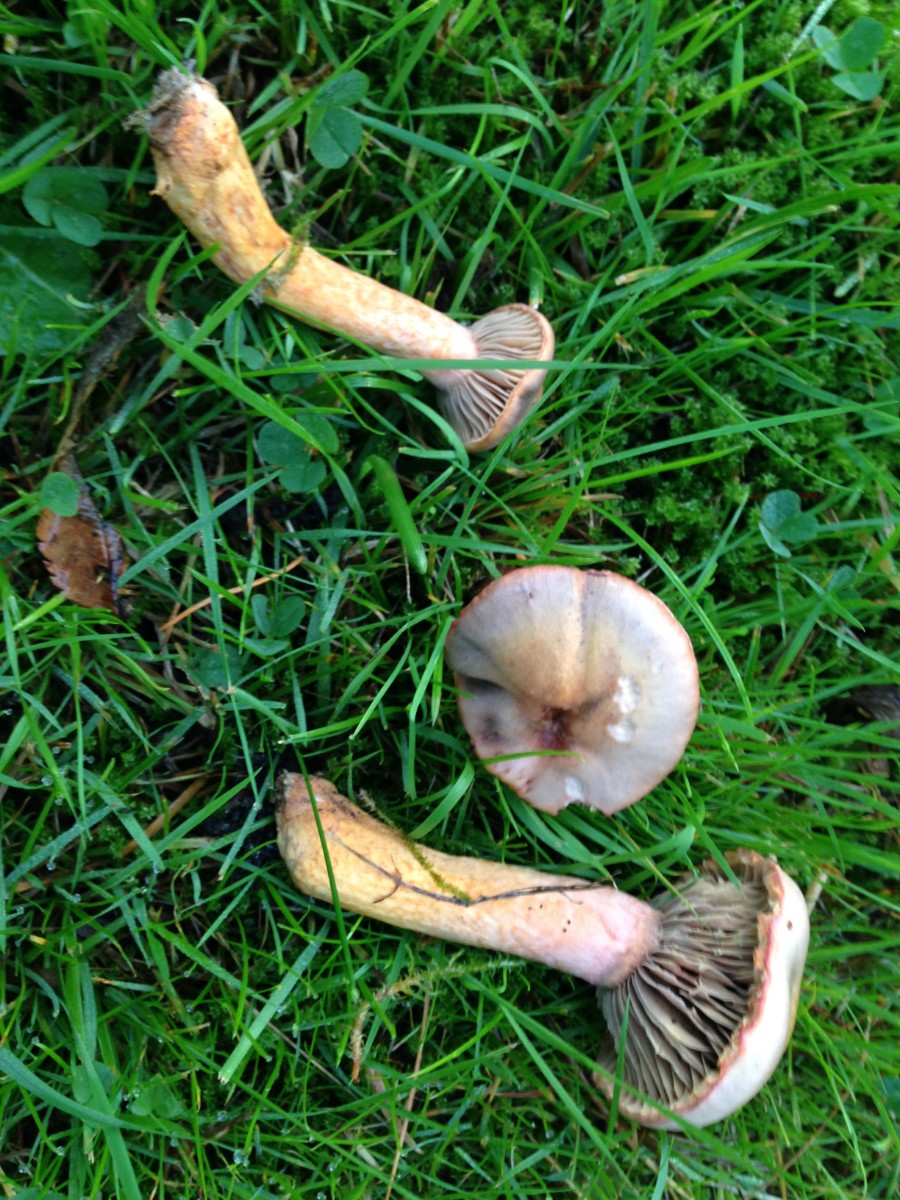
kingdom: Fungi
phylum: Basidiomycota
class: Agaricomycetes
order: Boletales
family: Gomphidiaceae
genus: Chroogomphus
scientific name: Chroogomphus rutilus
